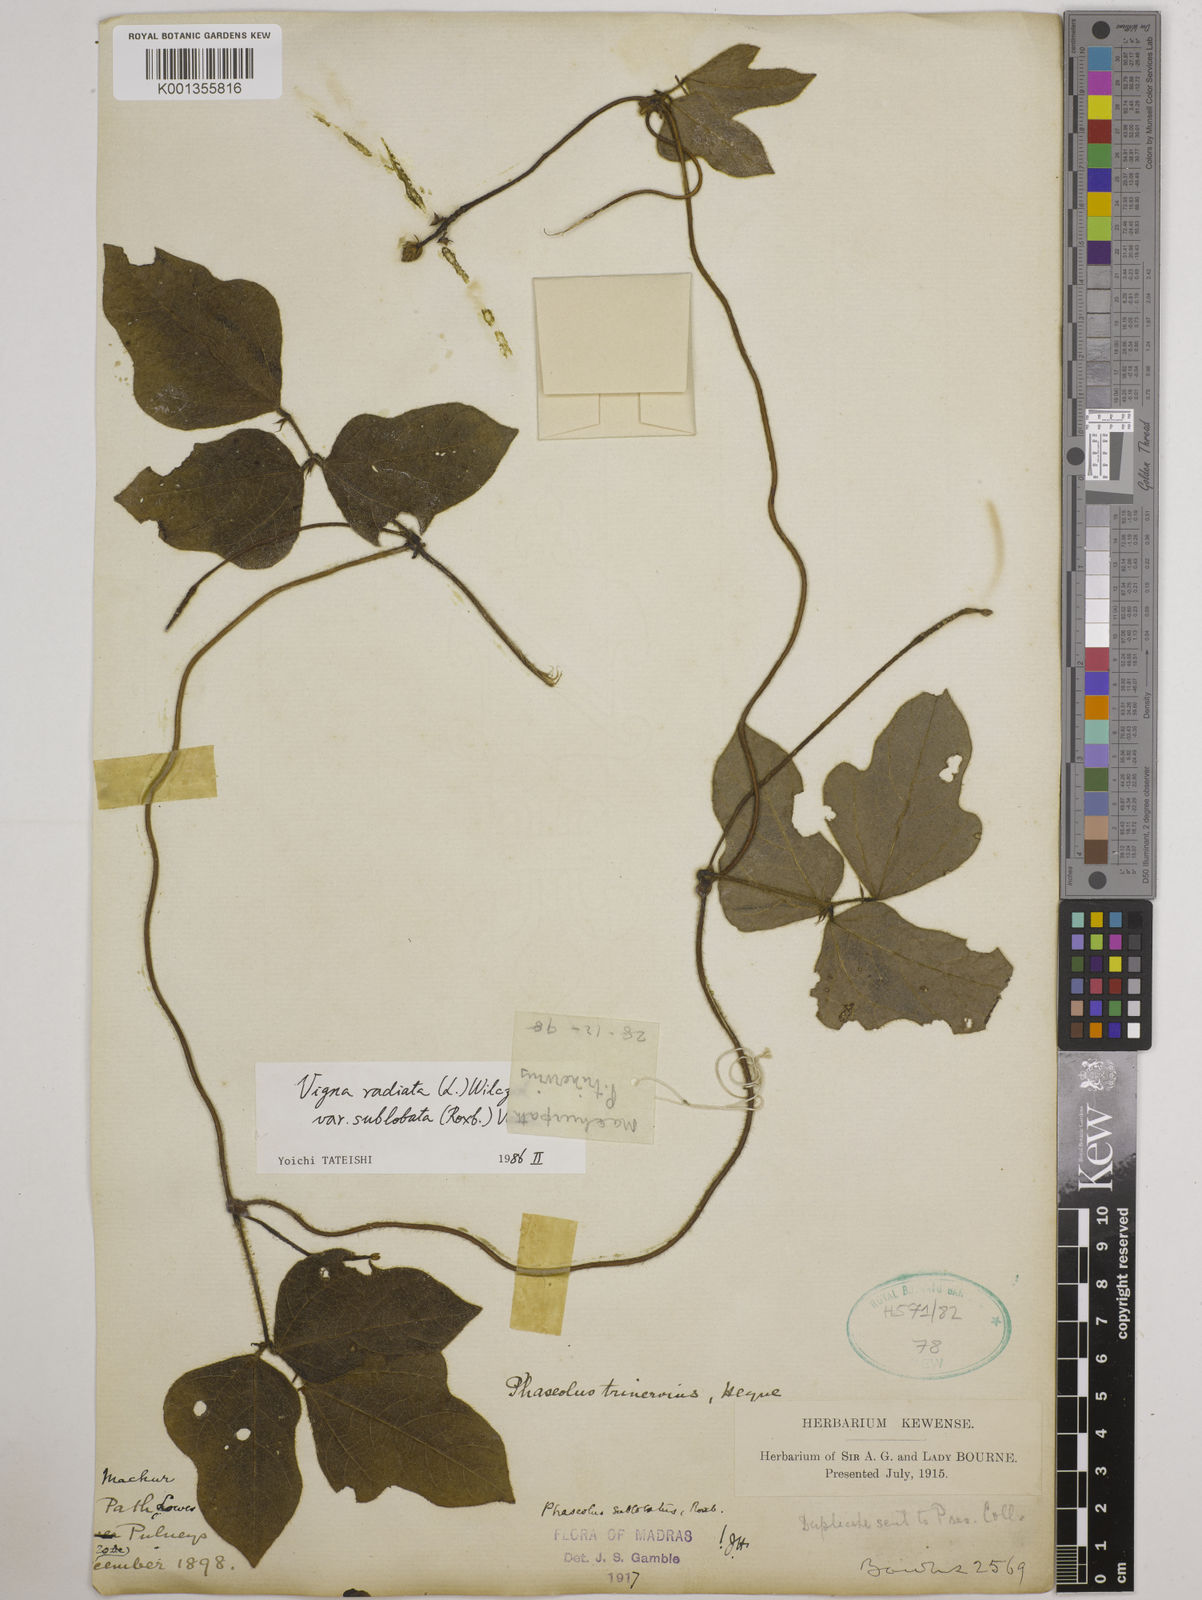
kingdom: Plantae
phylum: Tracheophyta
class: Magnoliopsida
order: Fabales
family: Fabaceae
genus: Vigna
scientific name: Vigna radiata
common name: Mung-bean
